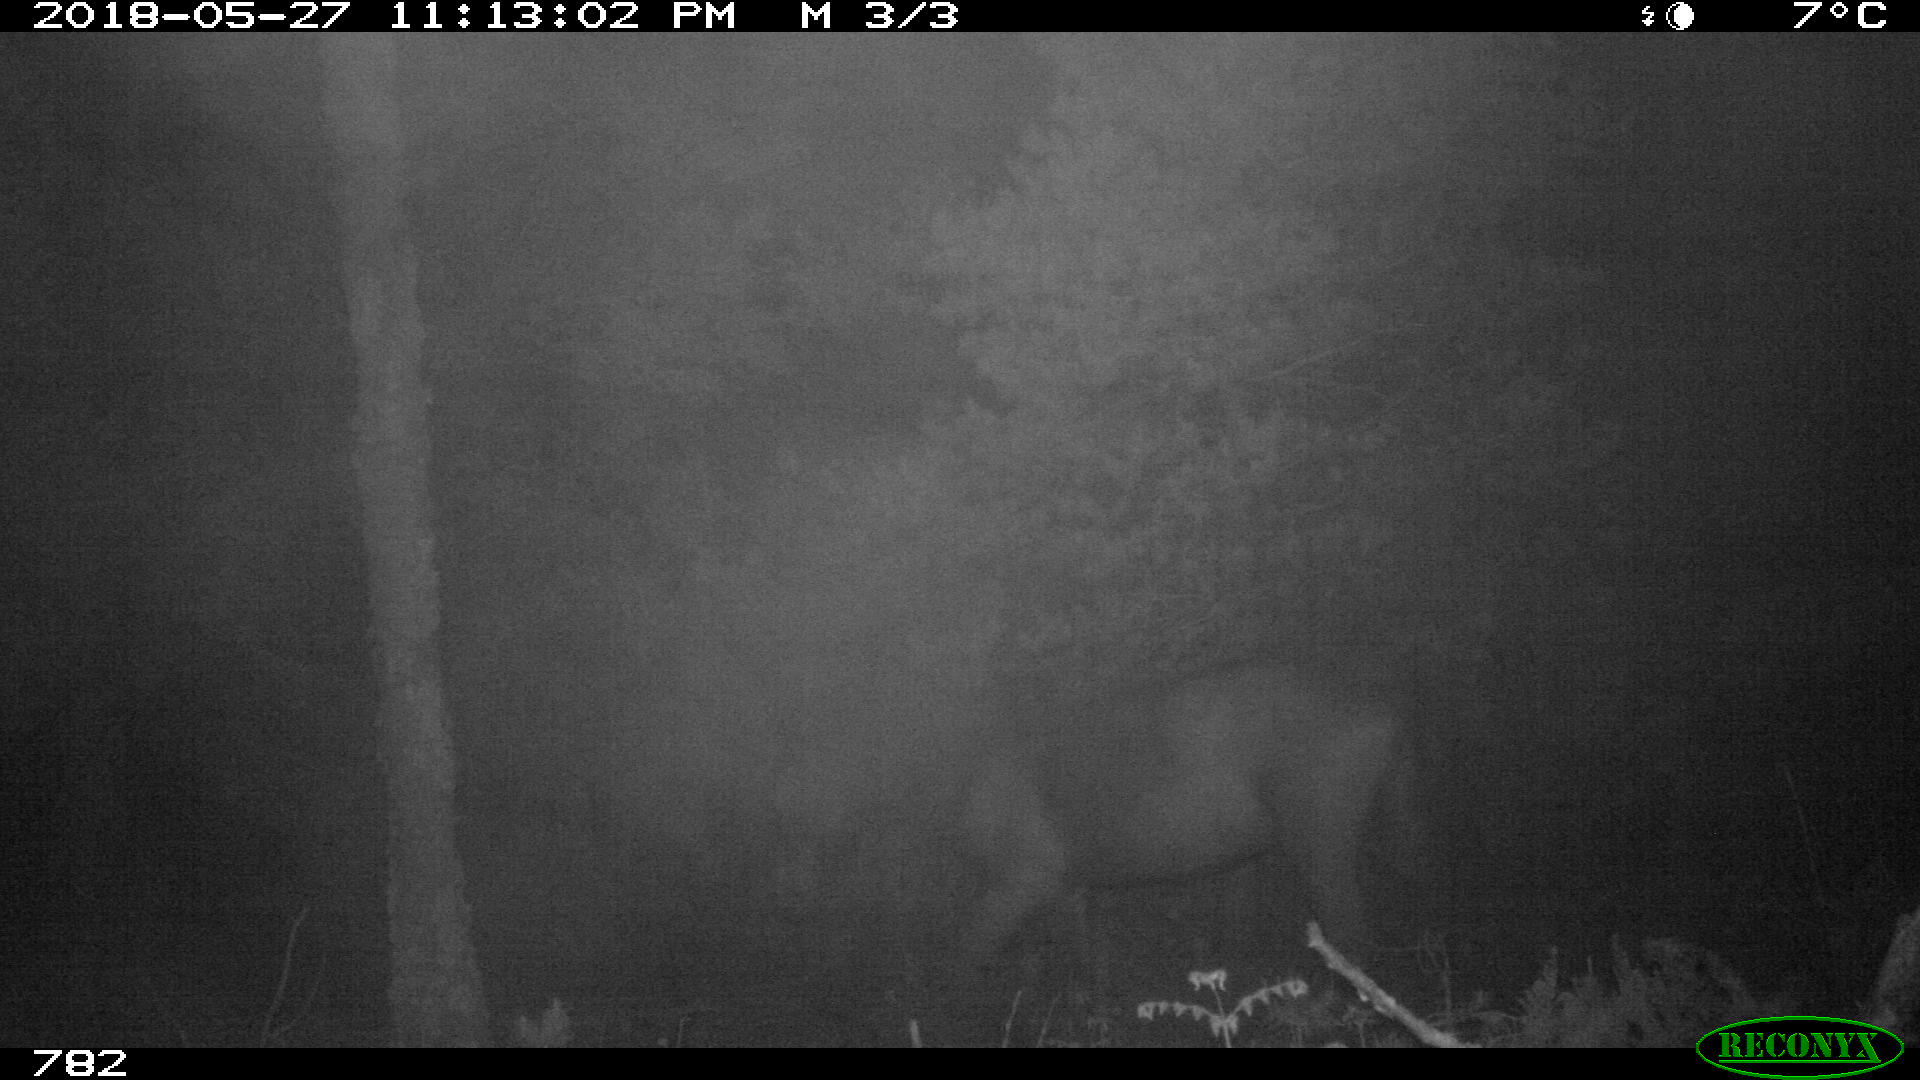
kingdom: Animalia
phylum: Chordata
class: Mammalia
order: Perissodactyla
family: Equidae
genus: Equus
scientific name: Equus caballus
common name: Horse
